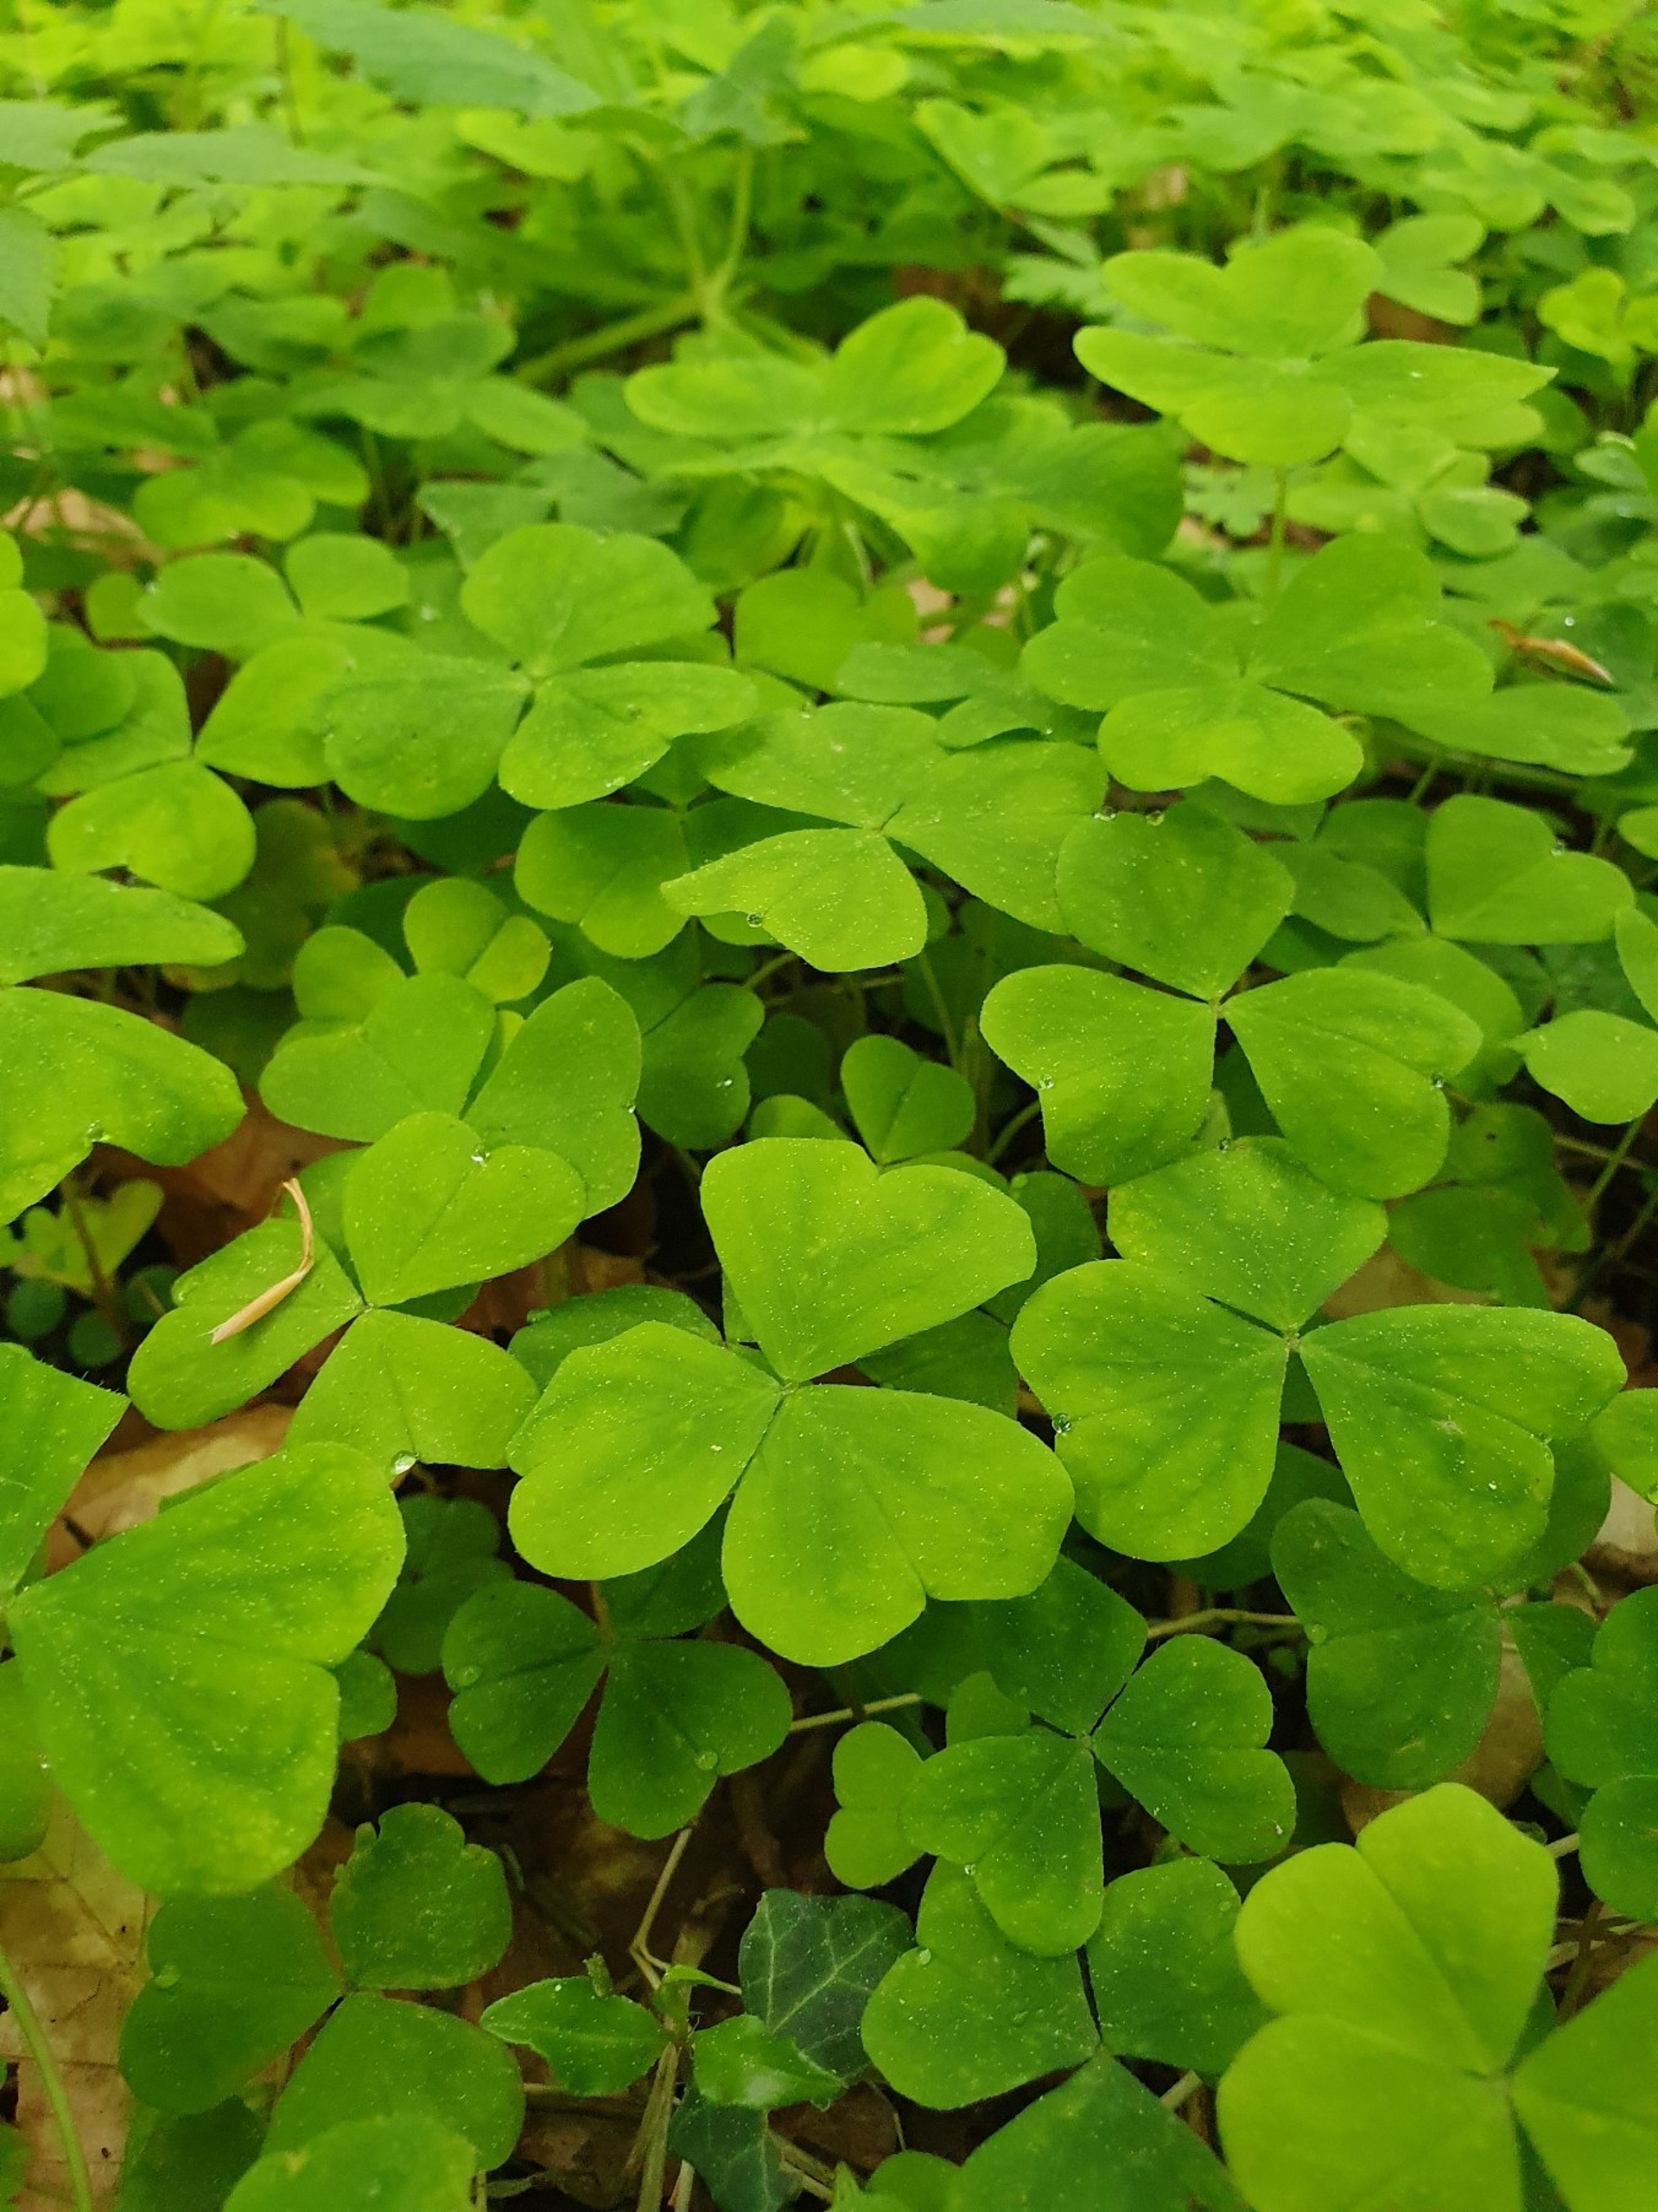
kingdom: Plantae
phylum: Tracheophyta
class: Magnoliopsida
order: Oxalidales
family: Oxalidaceae
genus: Oxalis
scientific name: Oxalis acetosella
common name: Skovsyre
